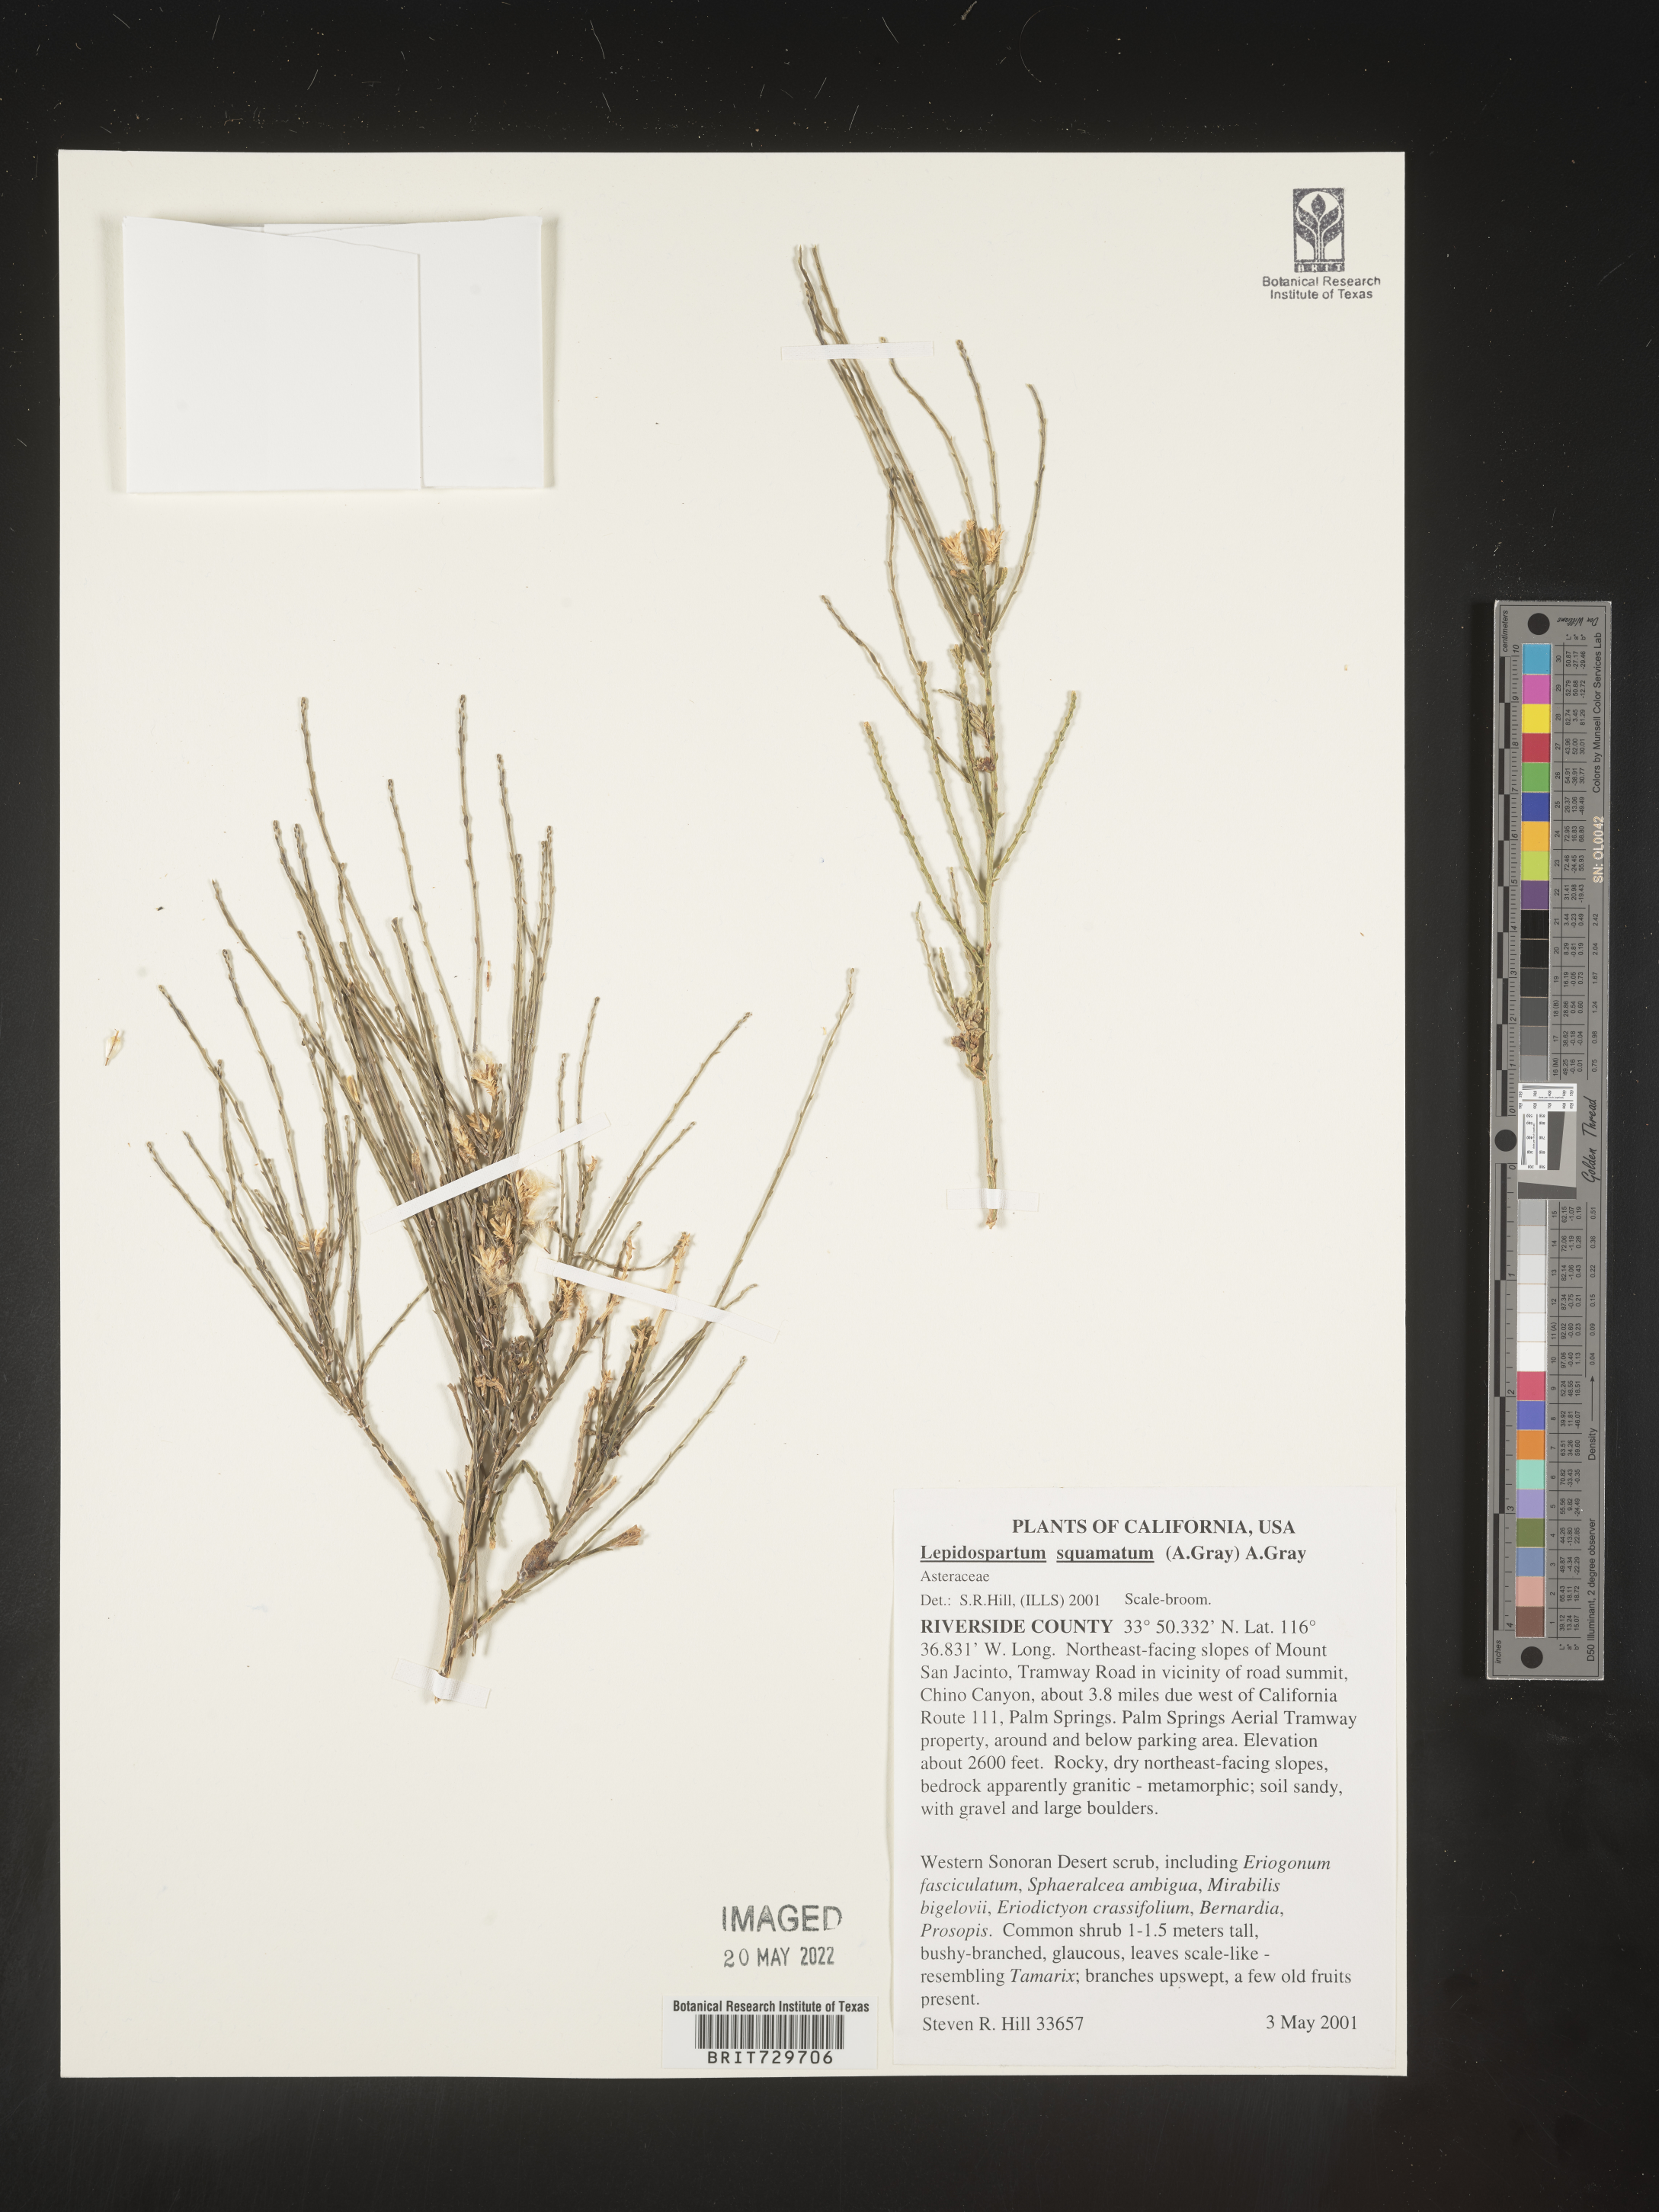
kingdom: Plantae
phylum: Tracheophyta
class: Magnoliopsida
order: Asterales
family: Asteraceae
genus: Lepidospartum
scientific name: Lepidospartum squamatum
